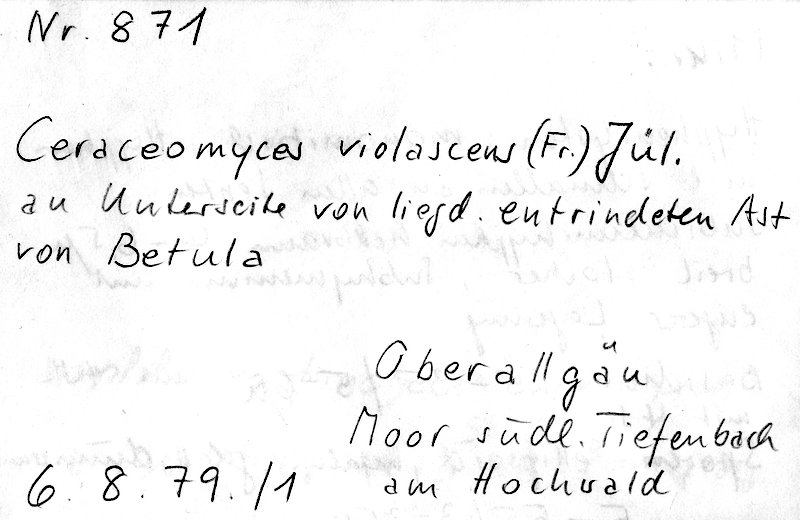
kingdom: Fungi
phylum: Basidiomycota
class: Agaricomycetes
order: Polyporales
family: Phanerochaetaceae
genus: Rhizochaete
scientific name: Rhizochaete violascens
